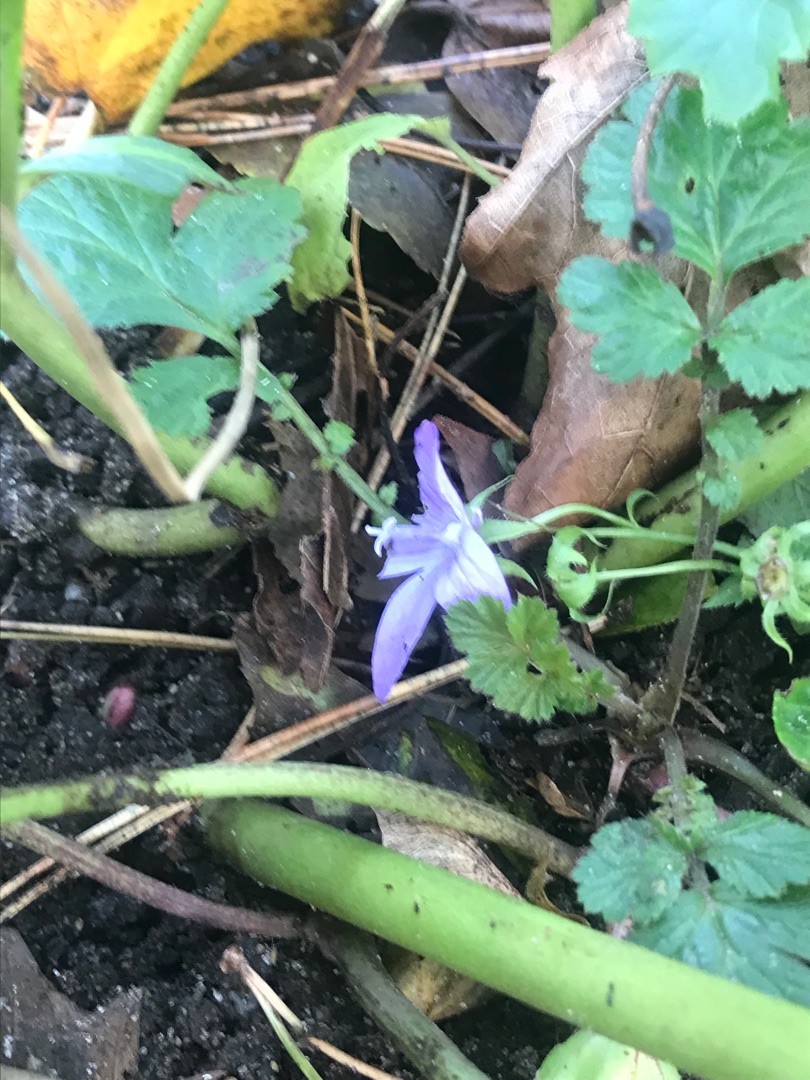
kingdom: Plantae
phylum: Tracheophyta
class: Magnoliopsida
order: Asterales
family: Campanulaceae
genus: Campanula
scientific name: Campanula poscharskyana
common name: Stjerne-klokke
